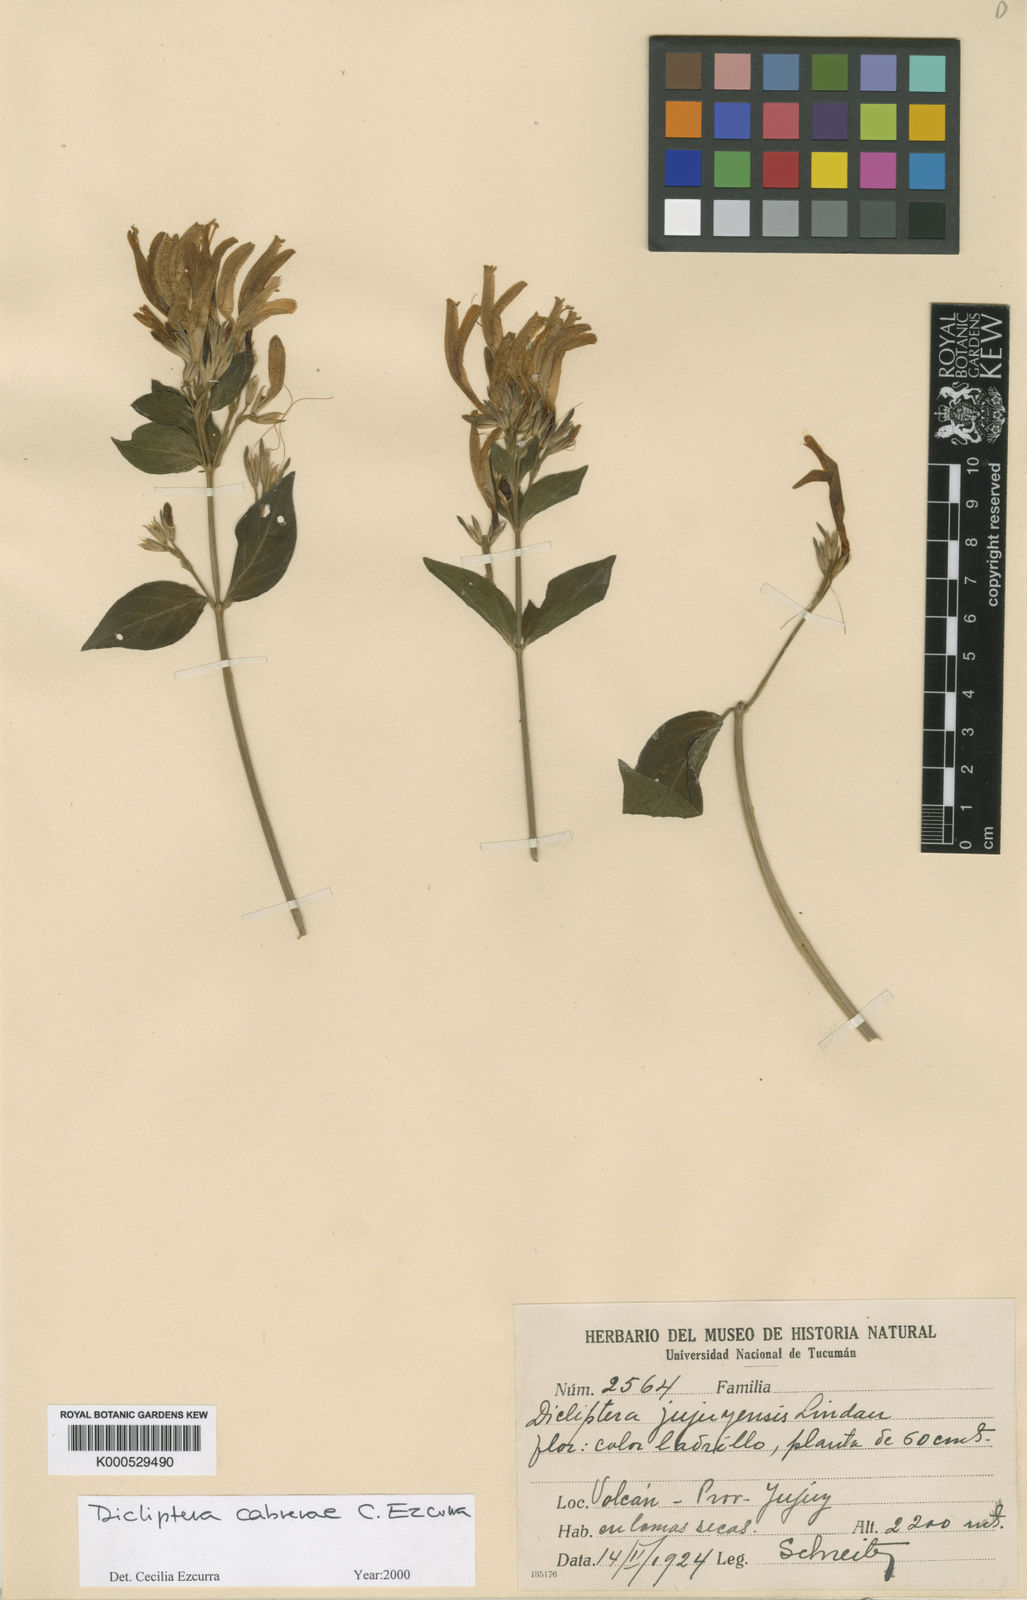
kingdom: Plantae
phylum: Tracheophyta
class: Magnoliopsida
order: Lamiales
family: Acanthaceae
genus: Dicliptera
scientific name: Dicliptera cabrerae
